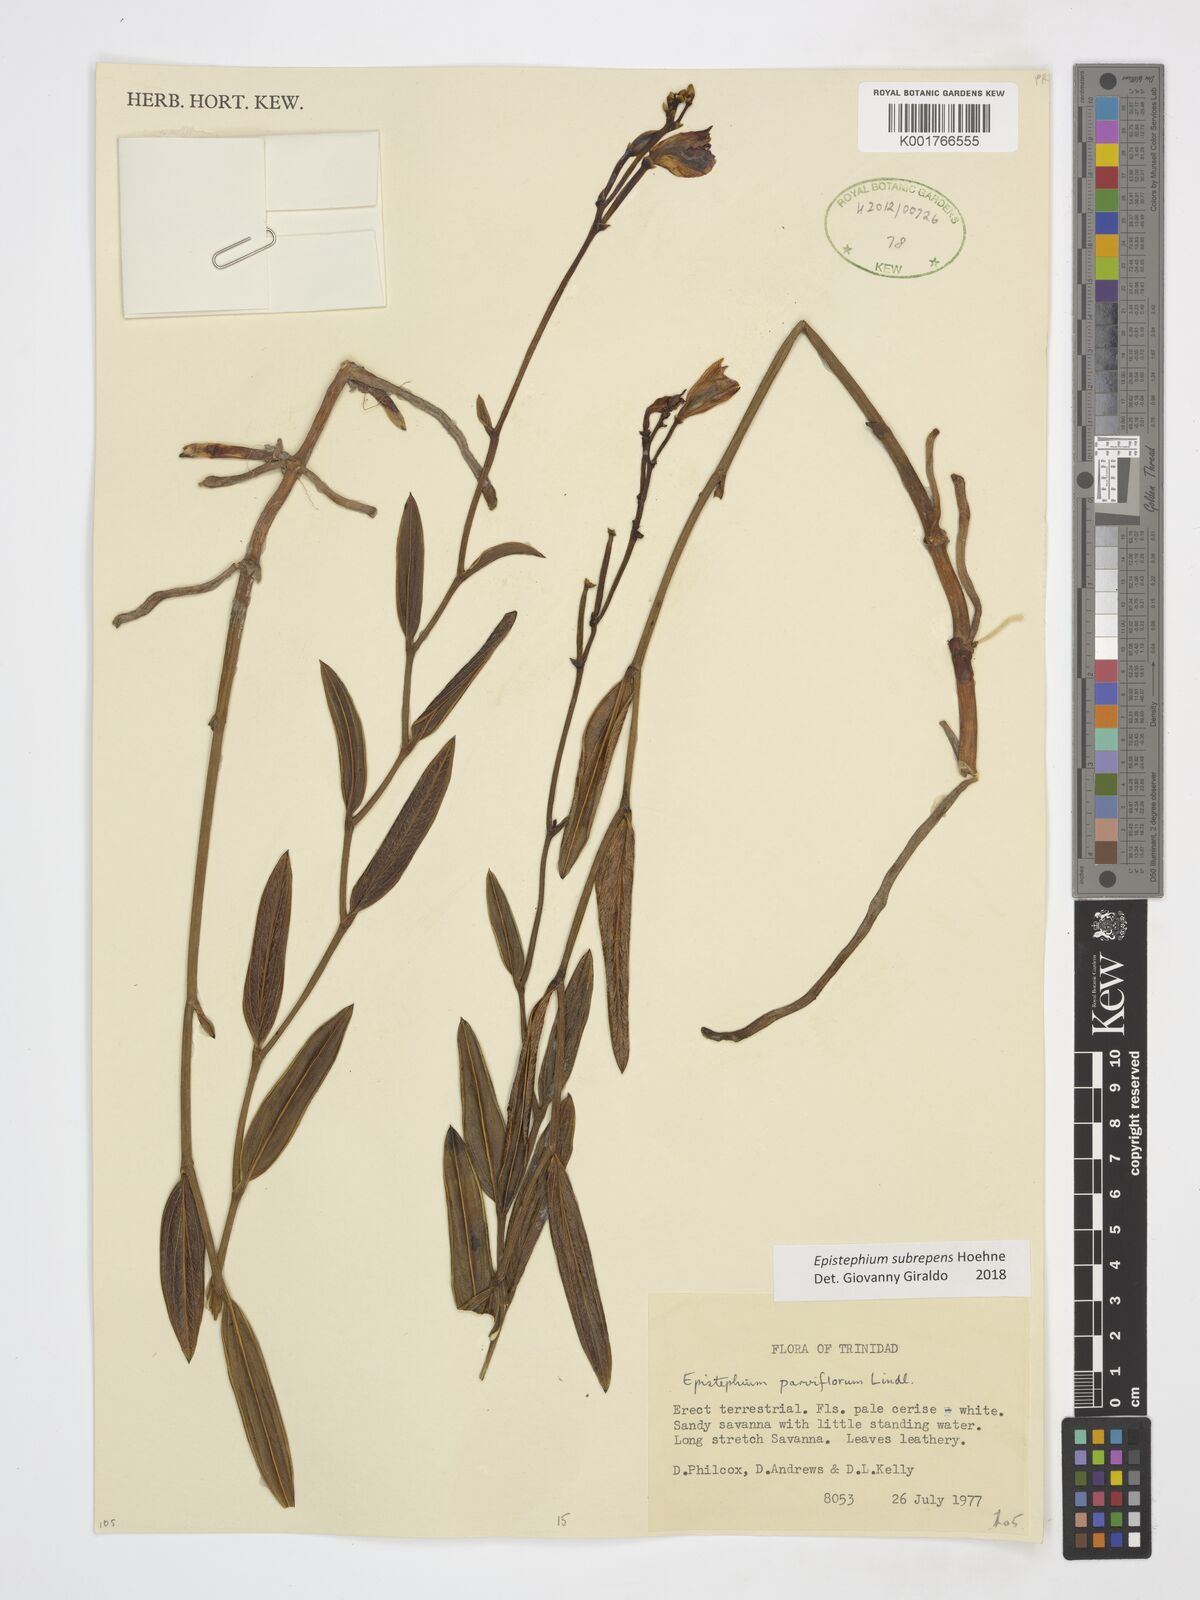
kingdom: Plantae
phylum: Tracheophyta
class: Liliopsida
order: Asparagales
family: Orchidaceae
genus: Epistephium
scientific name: Epistephium subrepens
